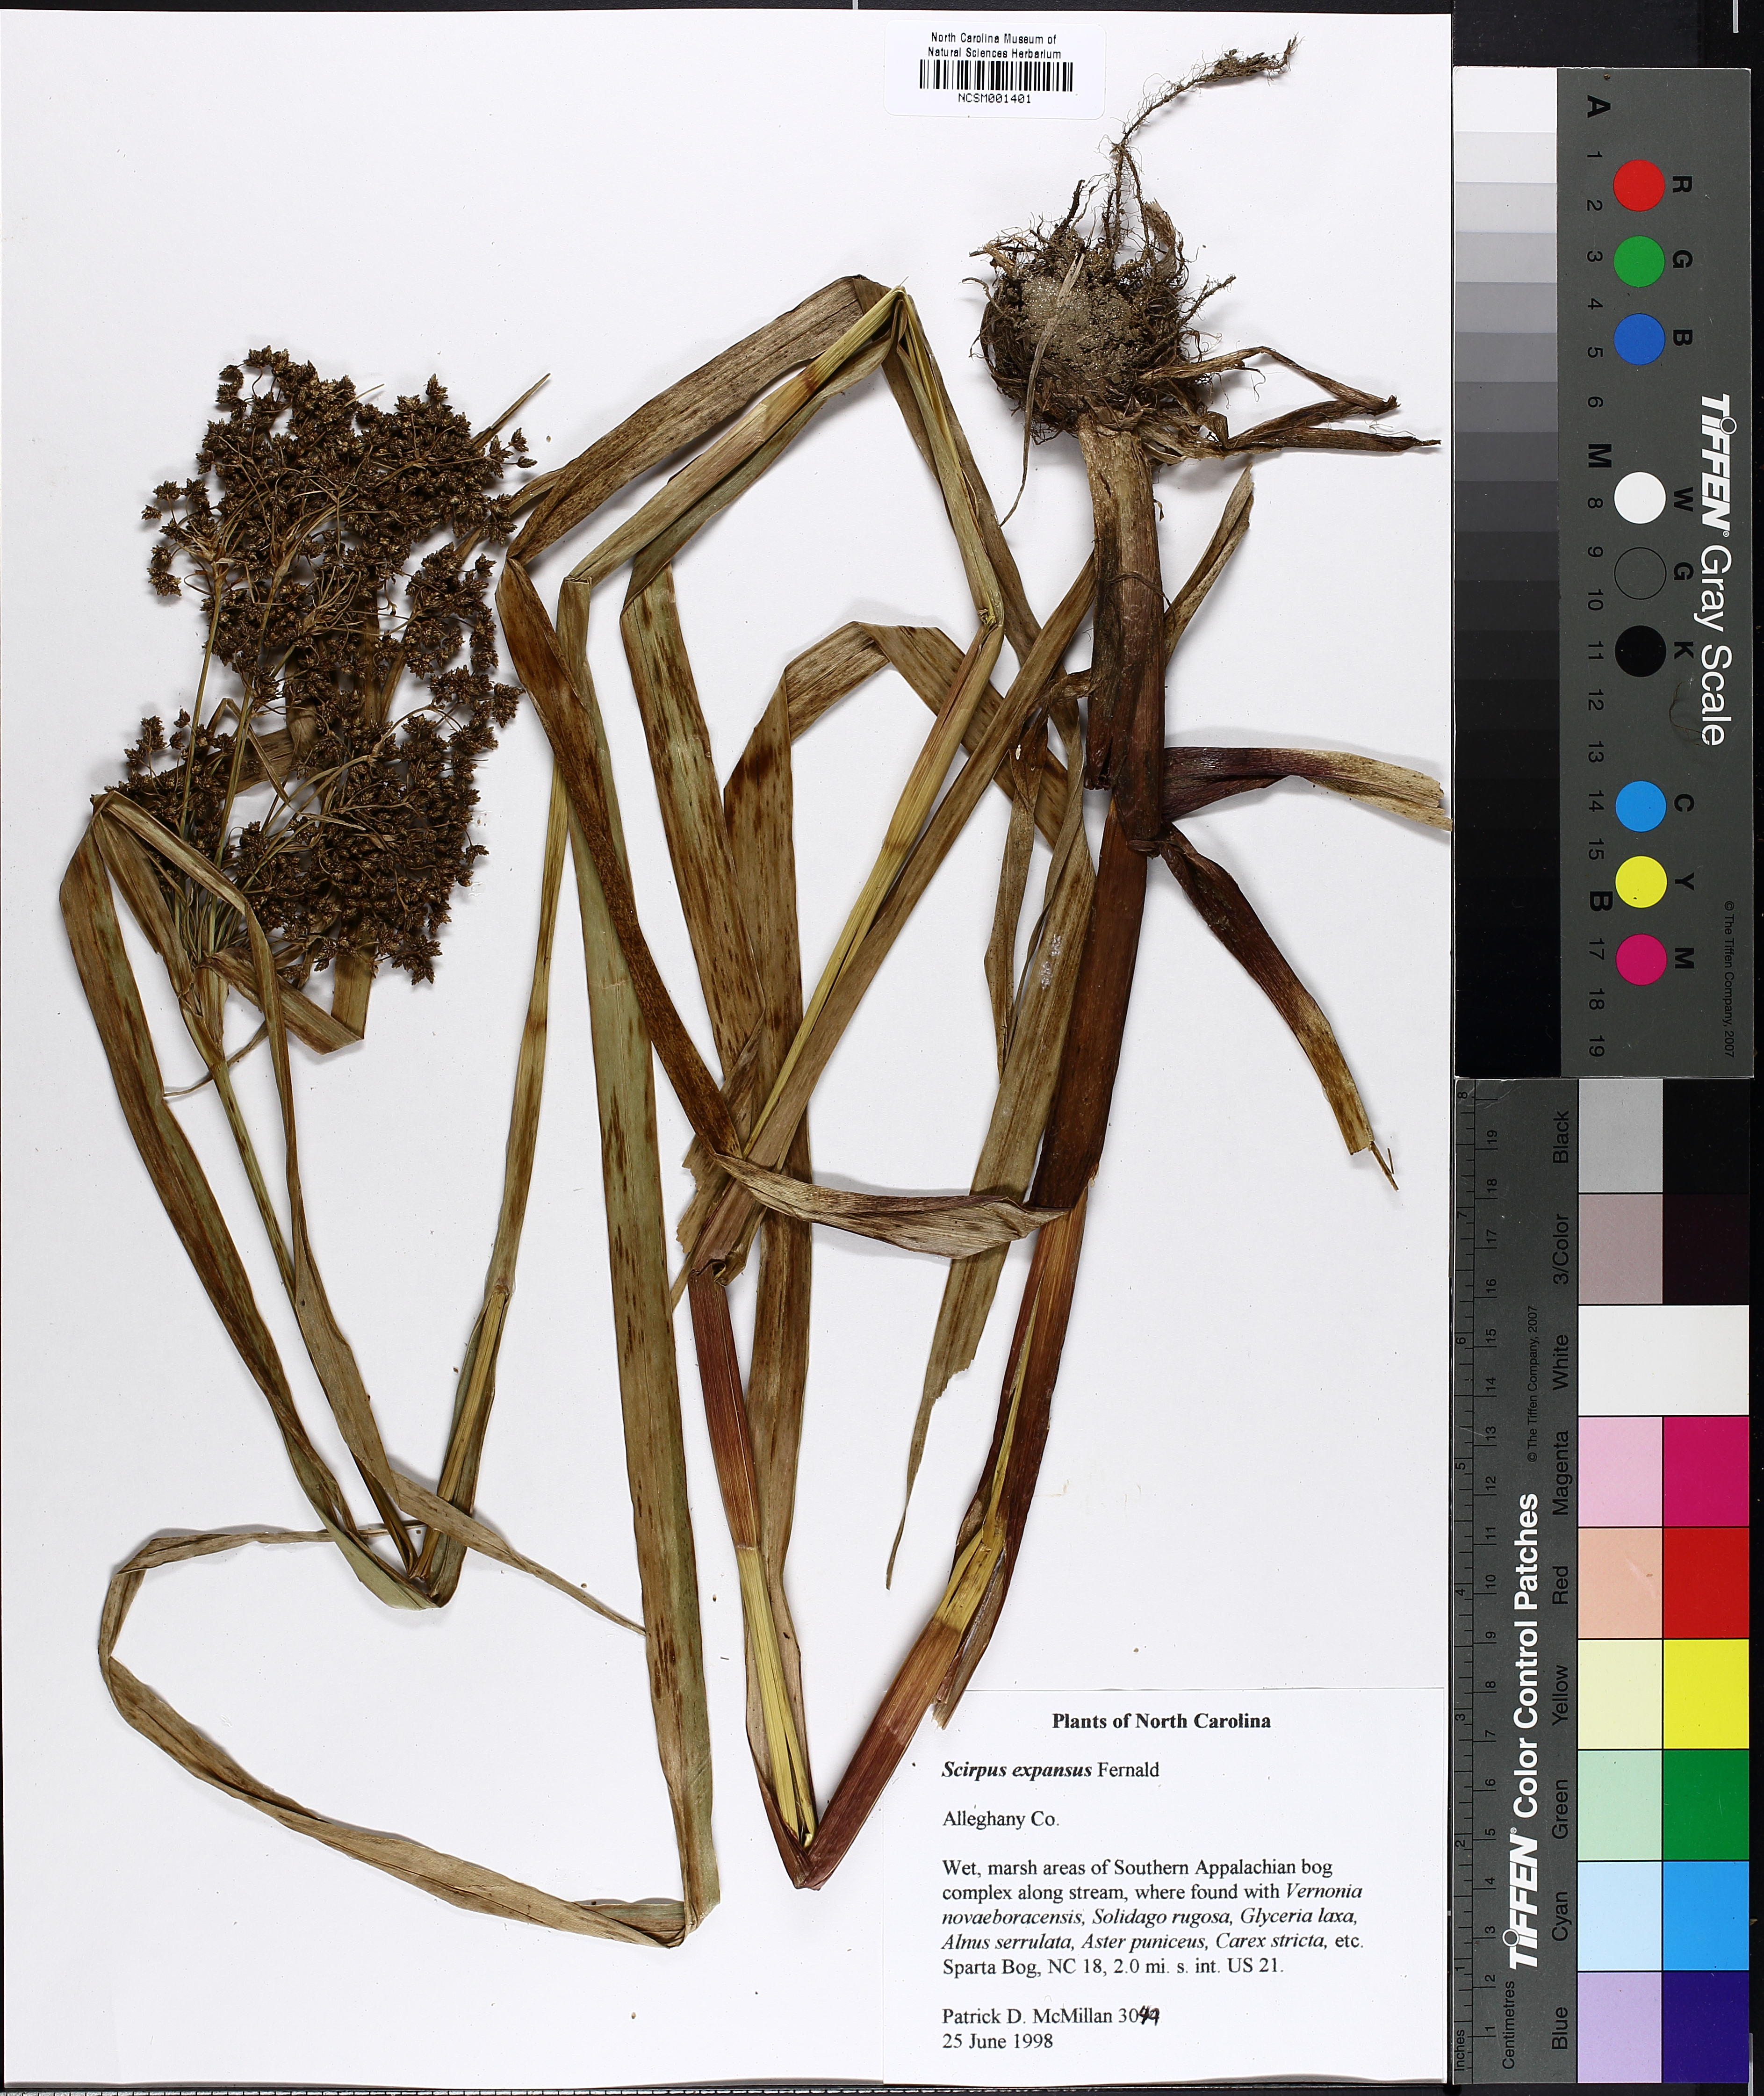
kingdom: Plantae
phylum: Tracheophyta
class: Liliopsida
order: Poales
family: Cyperaceae
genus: Scirpus
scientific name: Scirpus expansus
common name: Woodland bulrush
